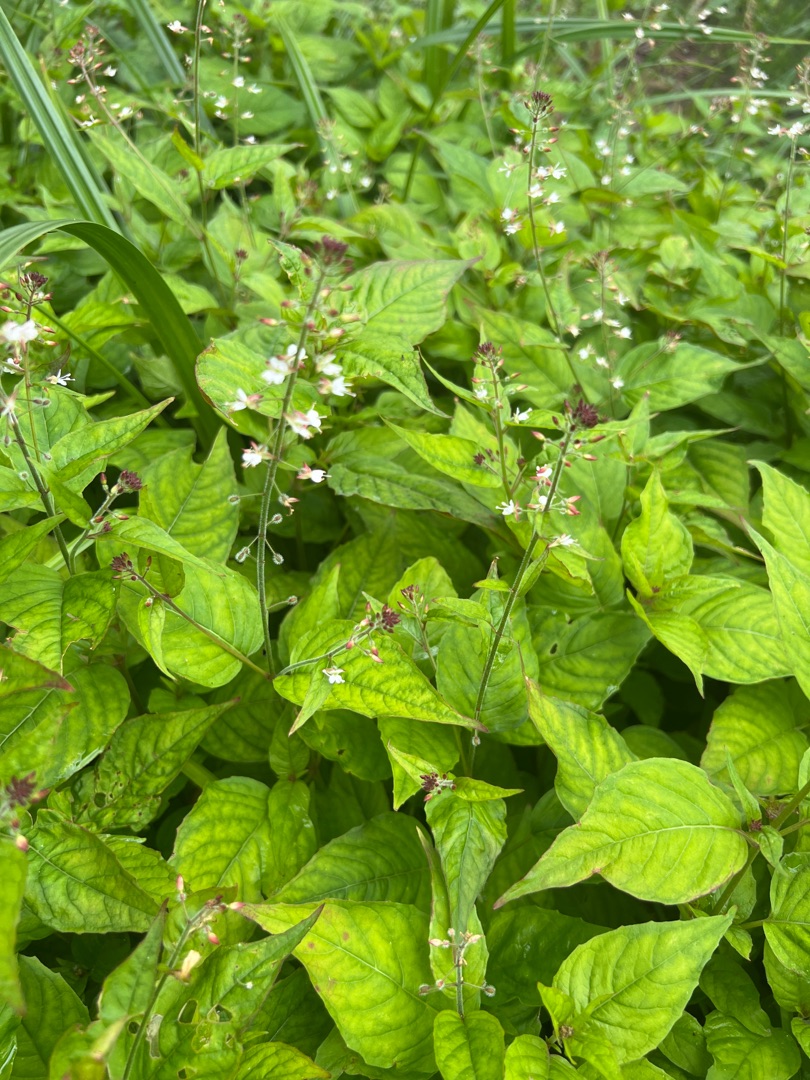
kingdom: Plantae
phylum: Tracheophyta
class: Magnoliopsida
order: Myrtales
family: Onagraceae
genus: Circaea
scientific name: Circaea lutetiana
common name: Dunet steffensurt
